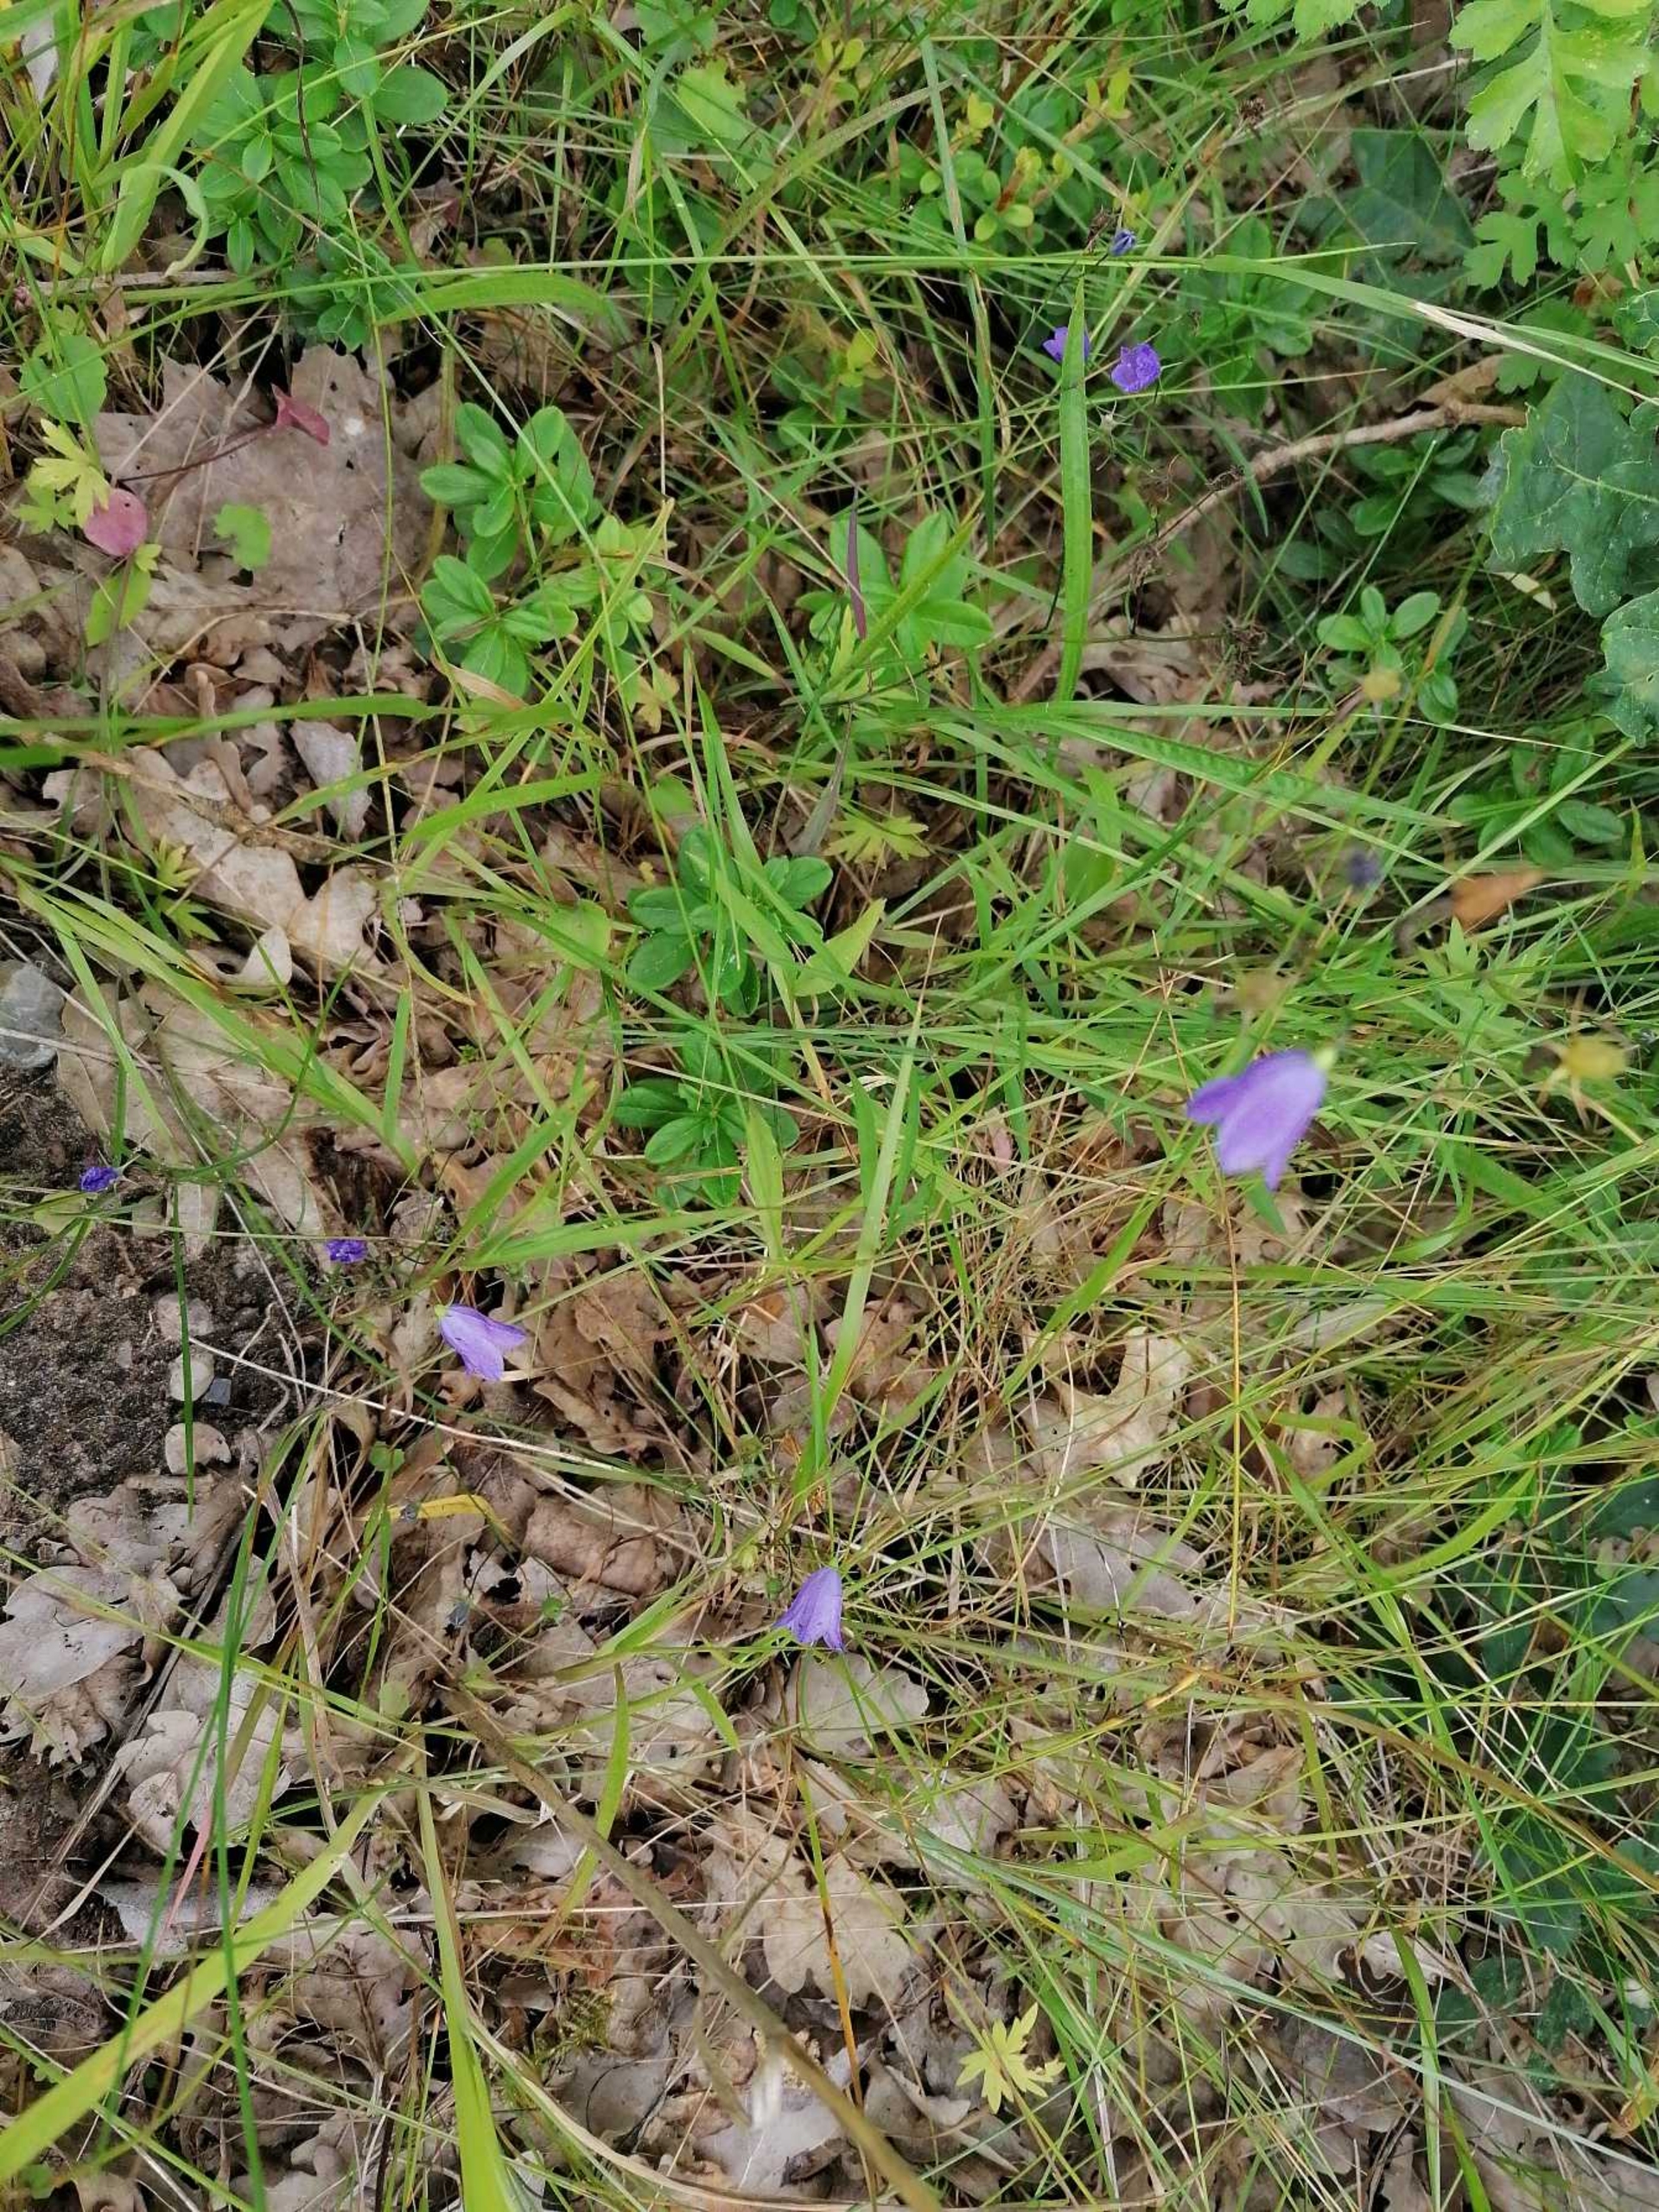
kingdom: Plantae
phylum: Tracheophyta
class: Magnoliopsida
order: Asterales
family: Campanulaceae
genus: Campanula
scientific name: Campanula rotundifolia
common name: Liden klokke
